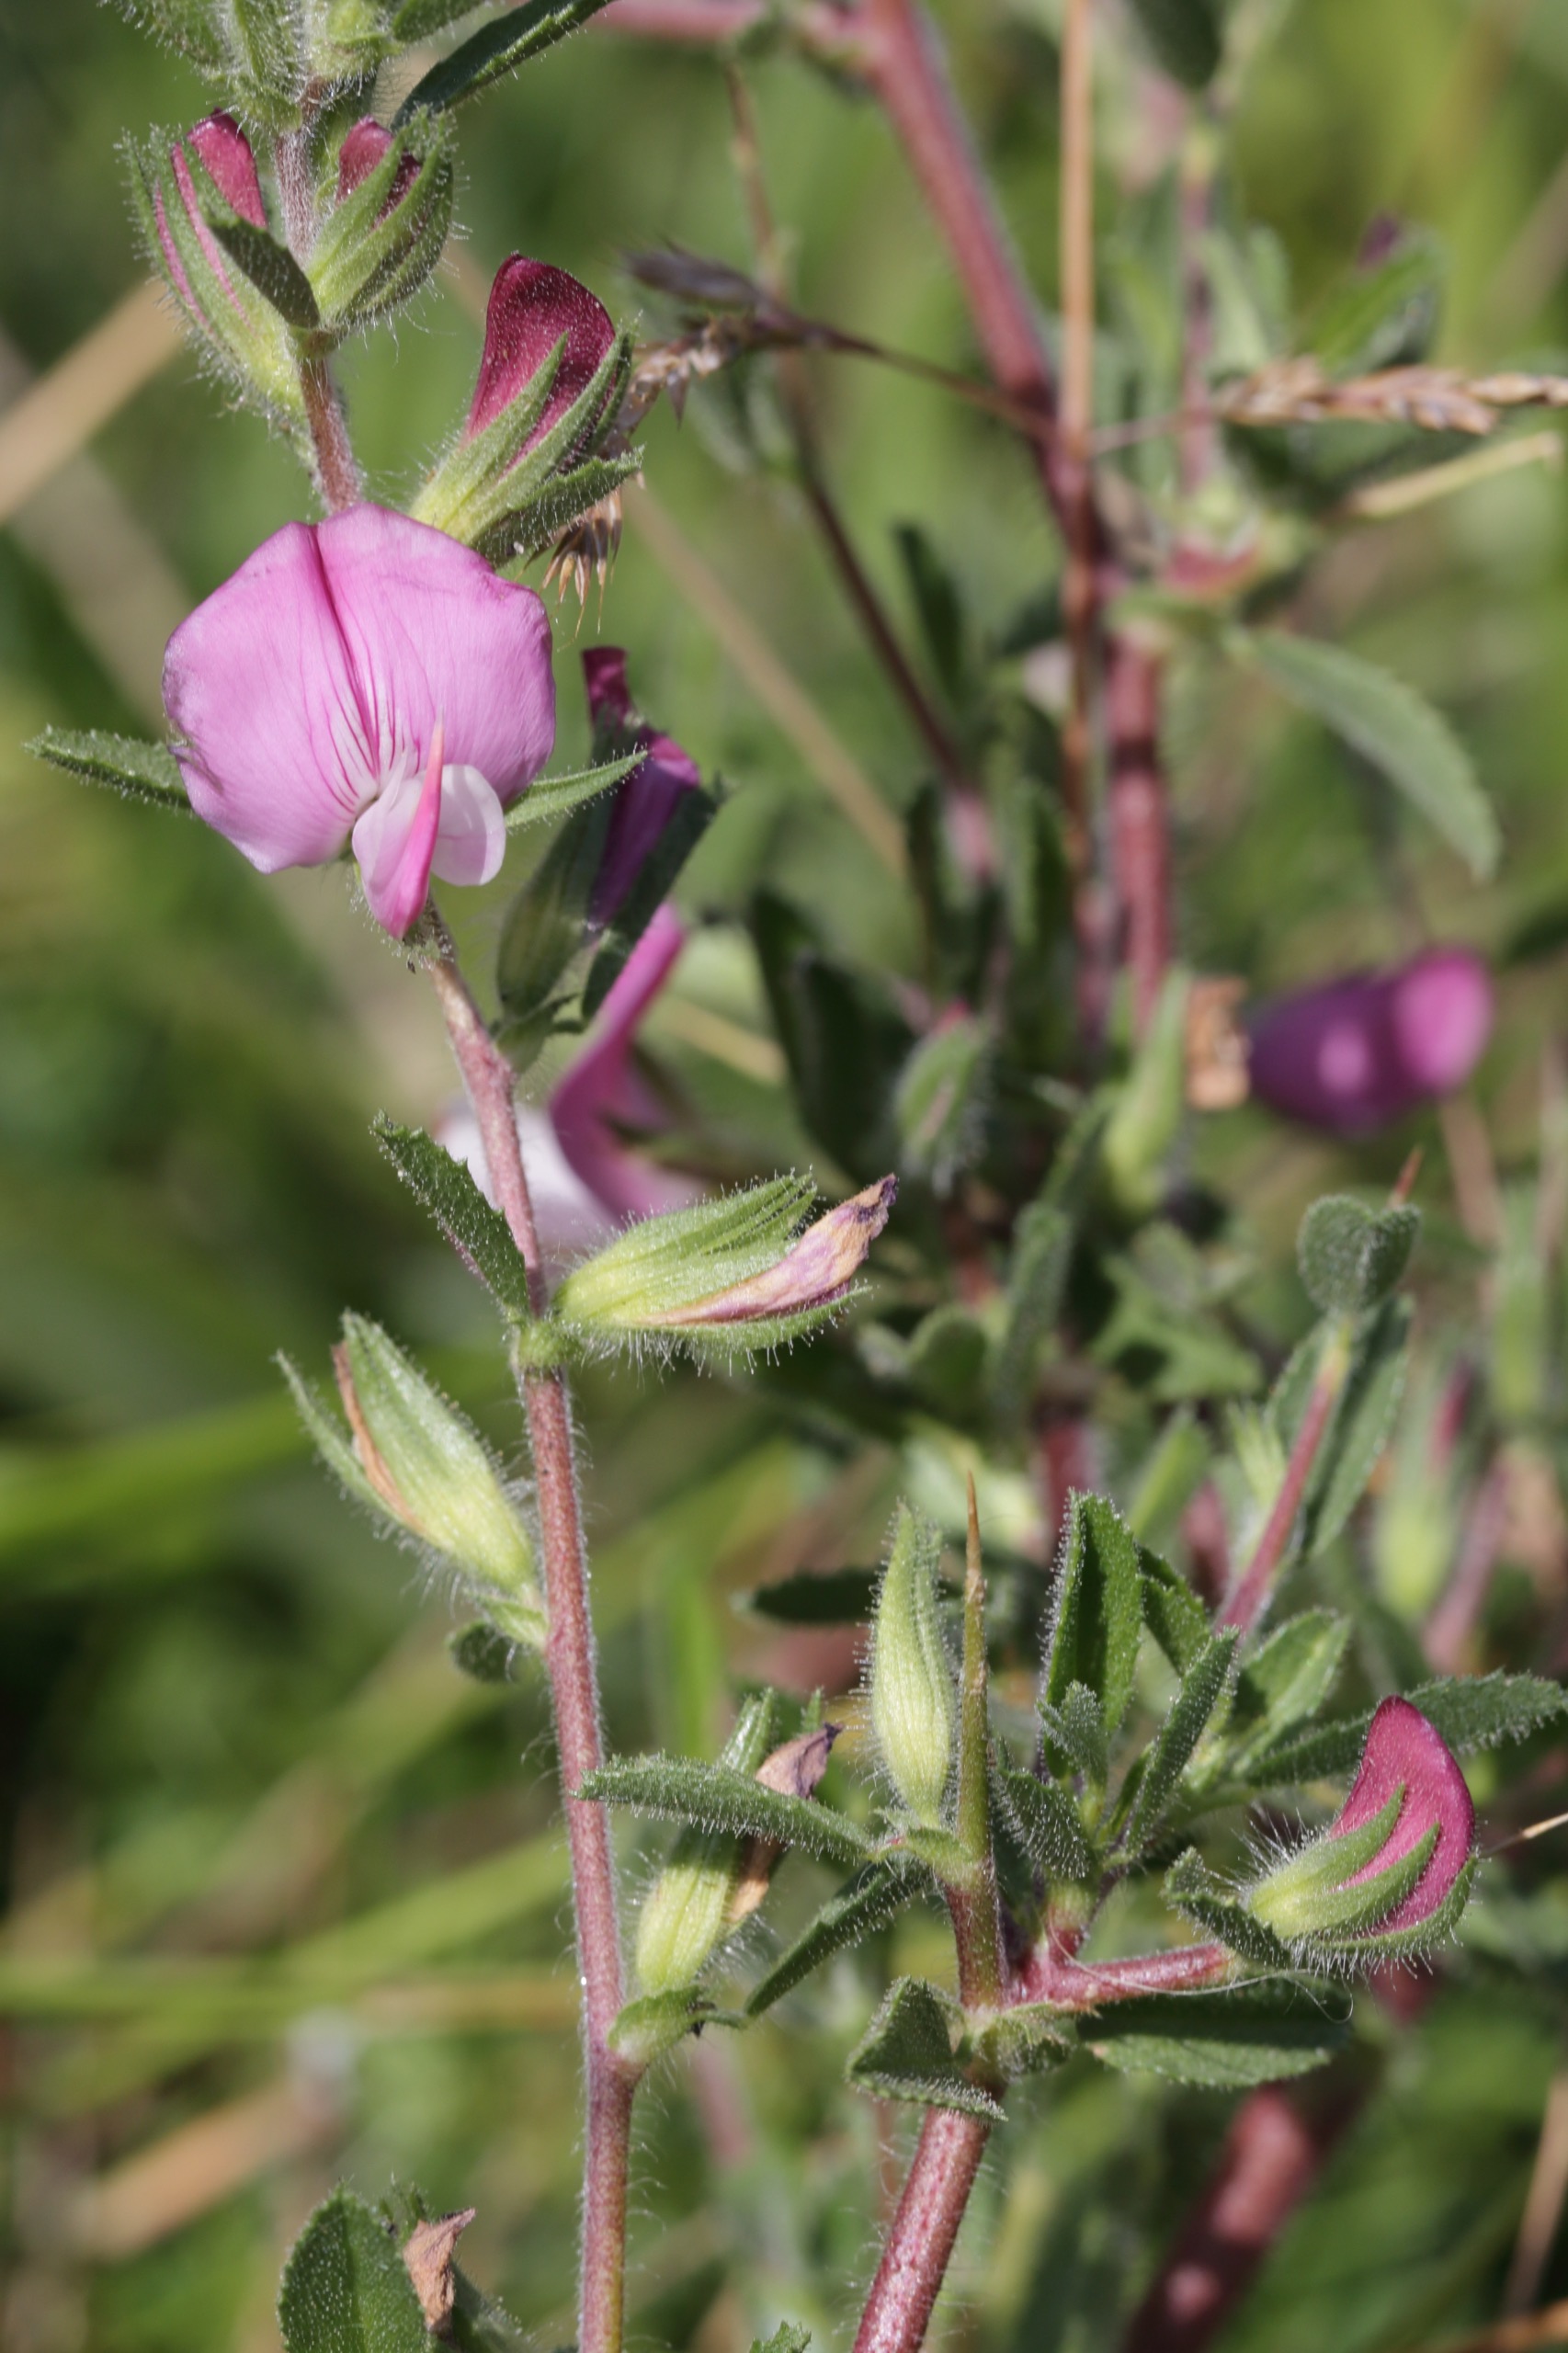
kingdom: Plantae
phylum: Tracheophyta
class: Magnoliopsida
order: Fabales
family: Fabaceae
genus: Ononis
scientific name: Ononis spinosa
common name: Mark-krageklo
